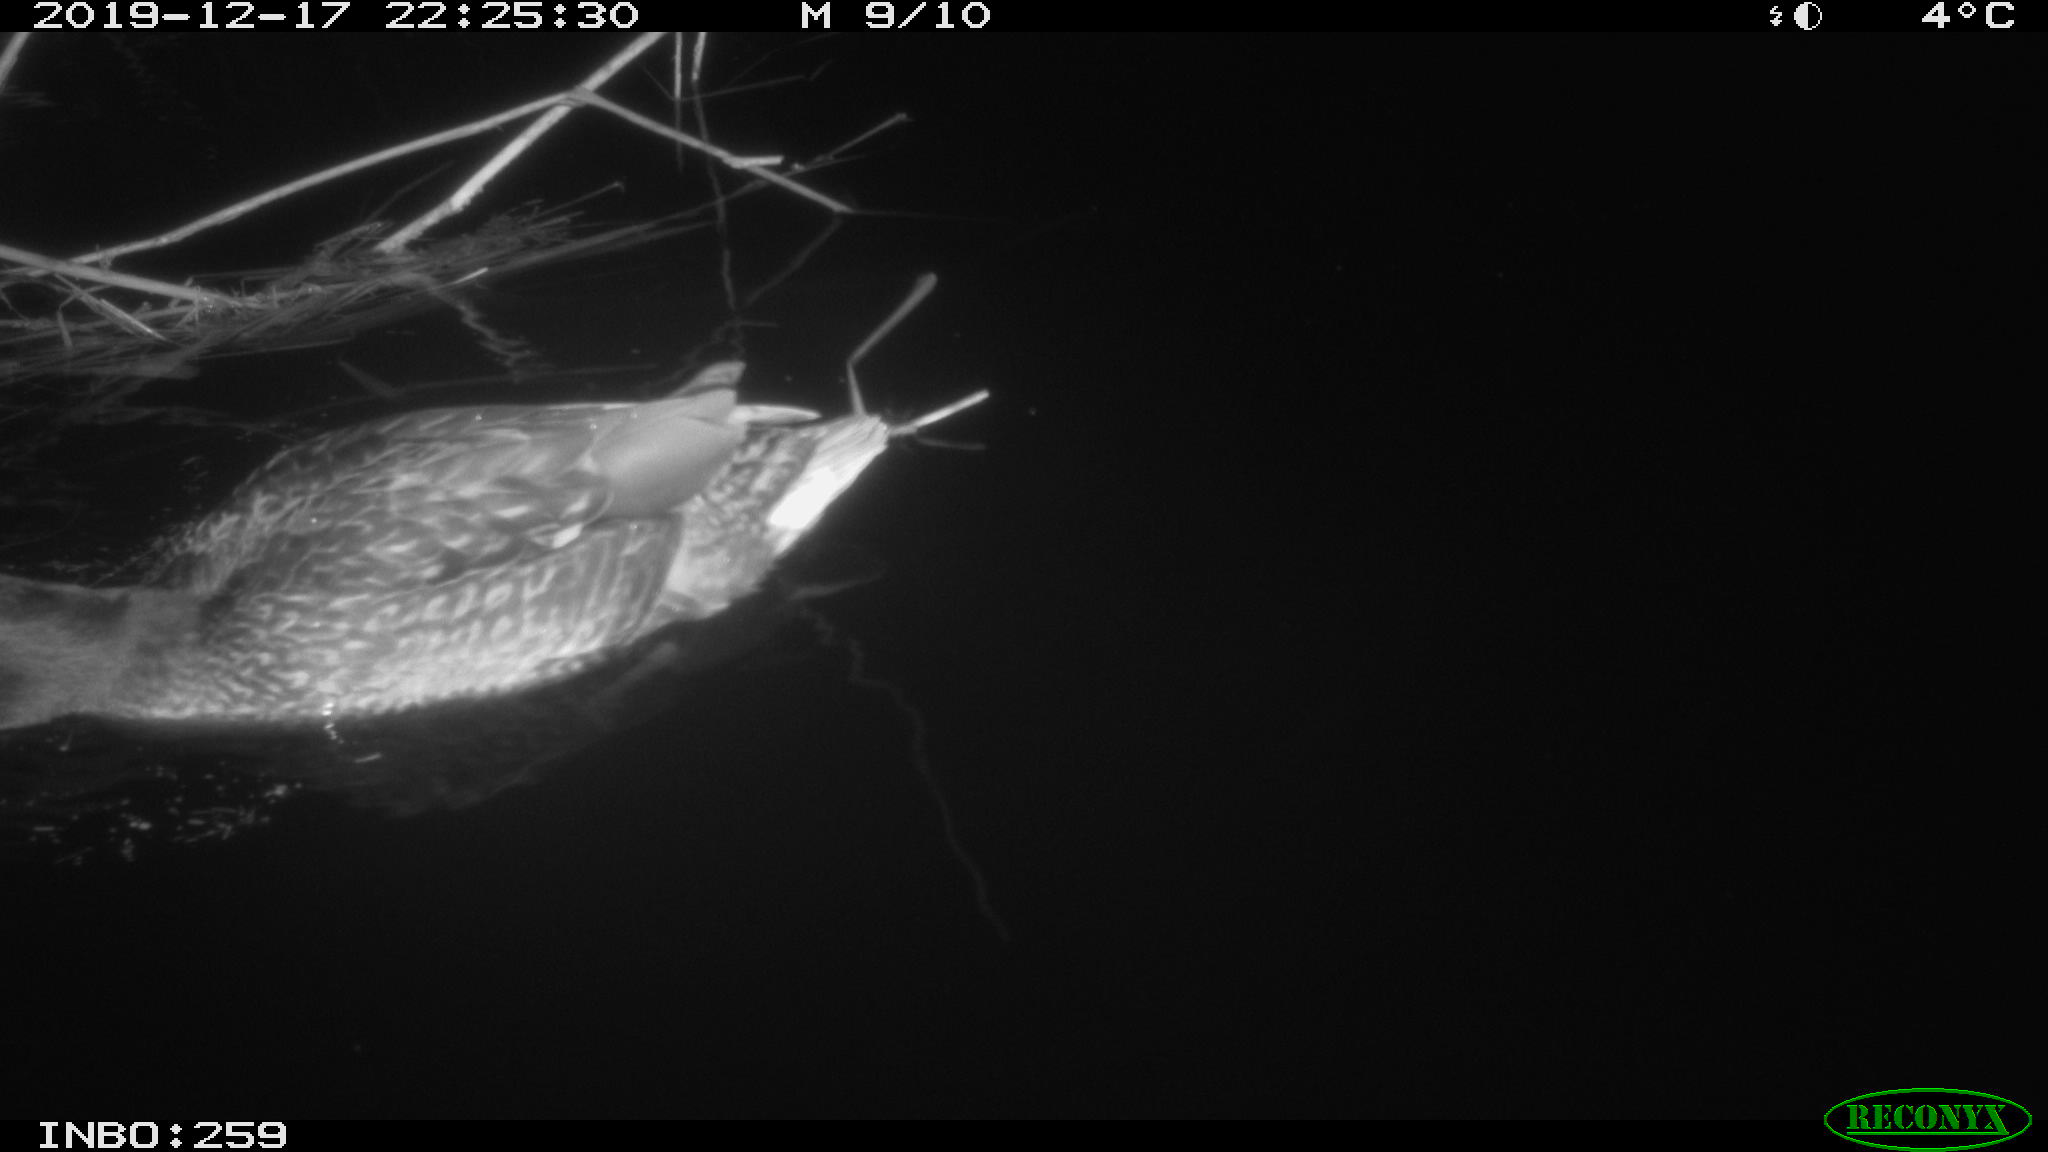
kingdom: Animalia
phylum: Chordata
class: Aves
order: Anseriformes
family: Anatidae
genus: Anas
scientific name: Anas platyrhynchos
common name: Mallard
